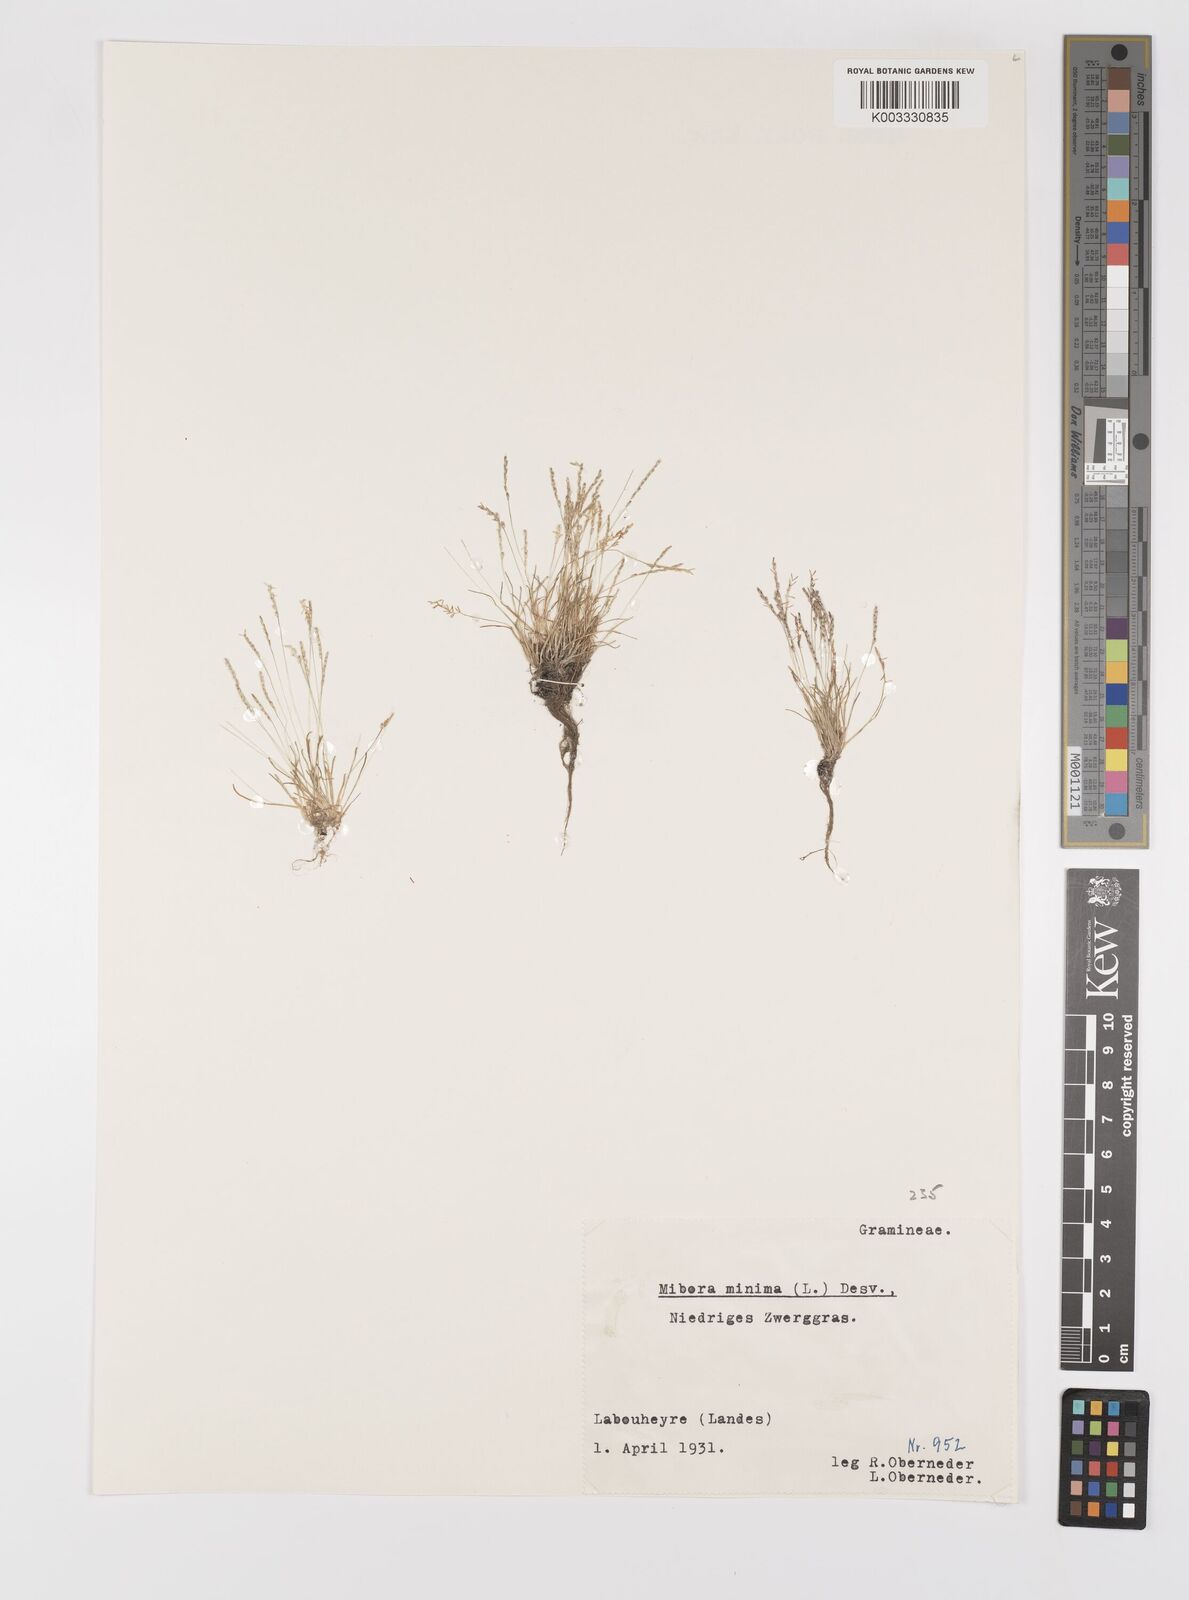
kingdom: Plantae
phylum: Tracheophyta
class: Liliopsida
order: Poales
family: Poaceae
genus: Mibora
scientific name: Mibora minima
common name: Early sand-grass
